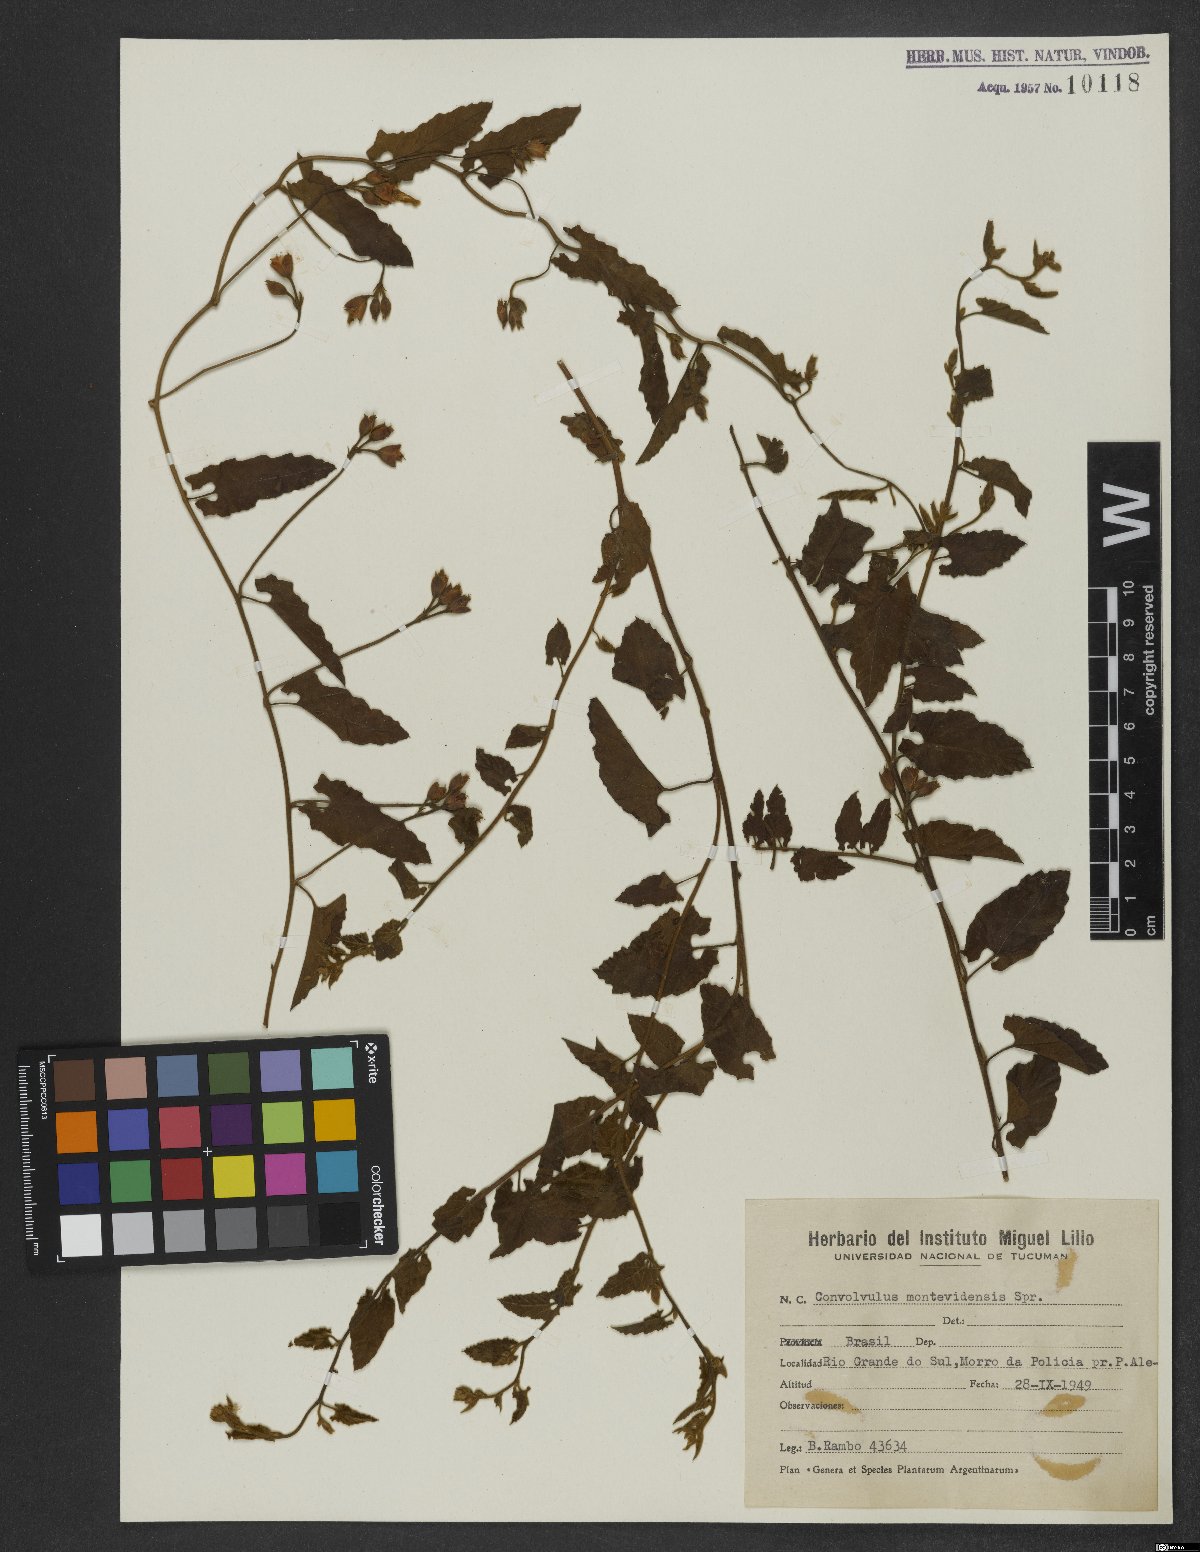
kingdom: Plantae
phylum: Tracheophyta
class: Magnoliopsida
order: Solanales
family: Convolvulaceae
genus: Convolvulus
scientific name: Convolvulus crenatifolius
